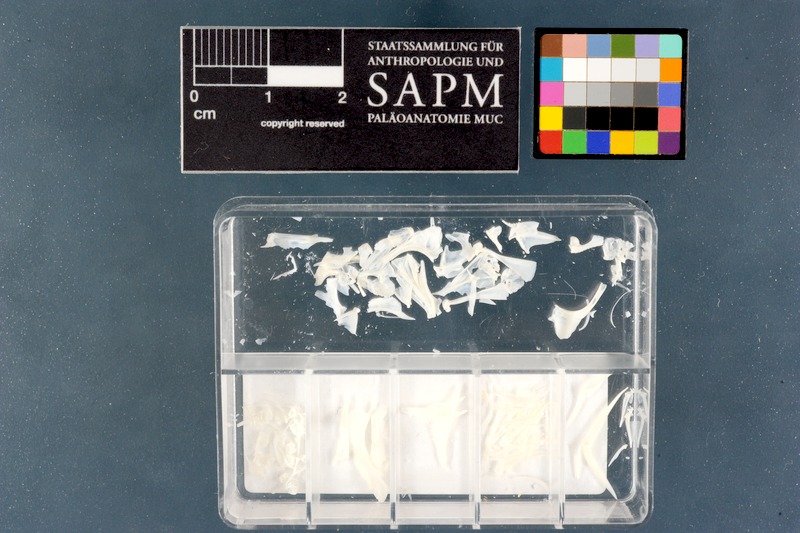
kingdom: Animalia
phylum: Chordata
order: Perciformes
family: Serranidae
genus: Acanthistius
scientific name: Acanthistius sebastoides
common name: Koester
